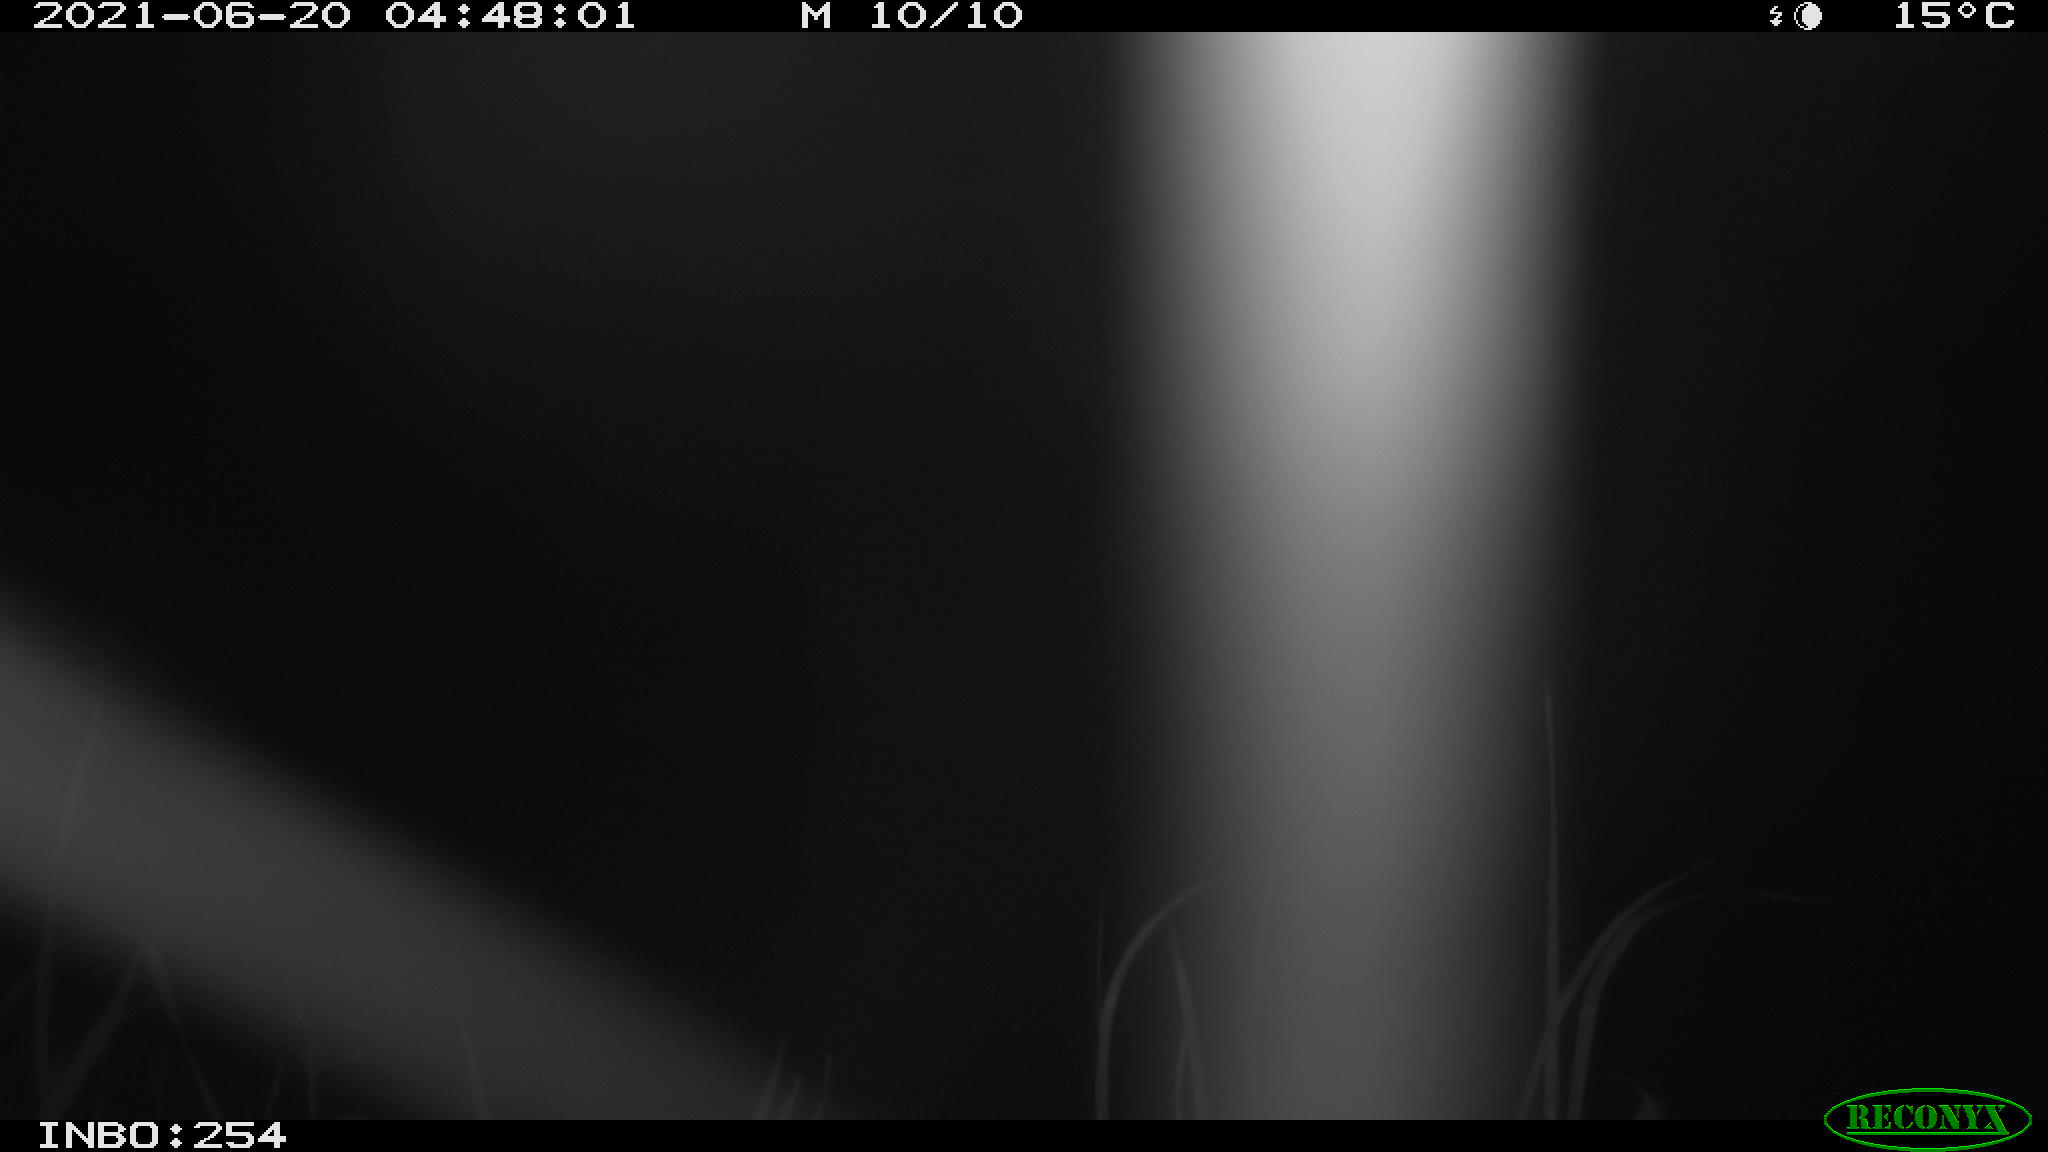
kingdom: Animalia
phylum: Chordata
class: Aves
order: Anseriformes
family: Anatidae
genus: Anas
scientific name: Anas platyrhynchos
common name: Mallard
